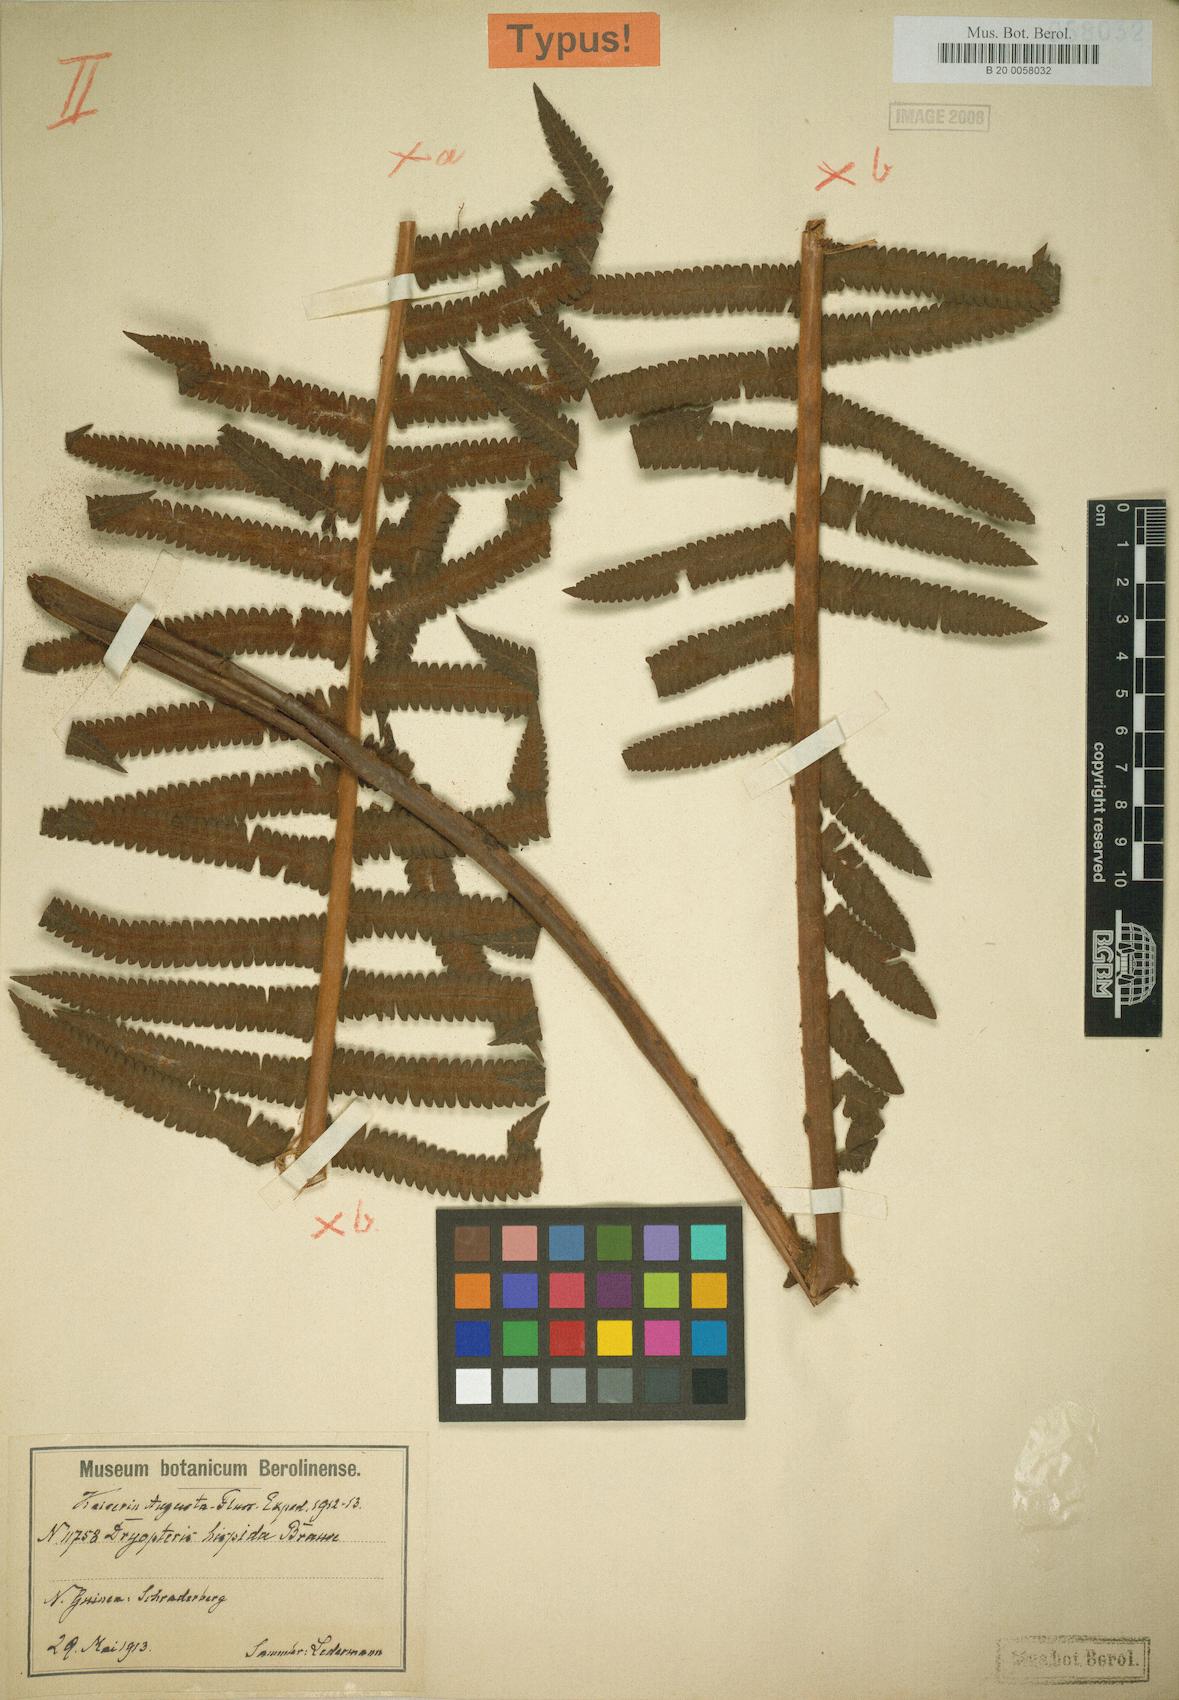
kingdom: Plantae
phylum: Tracheophyta
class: Polypodiopsida
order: Polypodiales
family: Thelypteridaceae
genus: Sphaerostephanos
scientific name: Sphaerostephanos hispiduliformis
